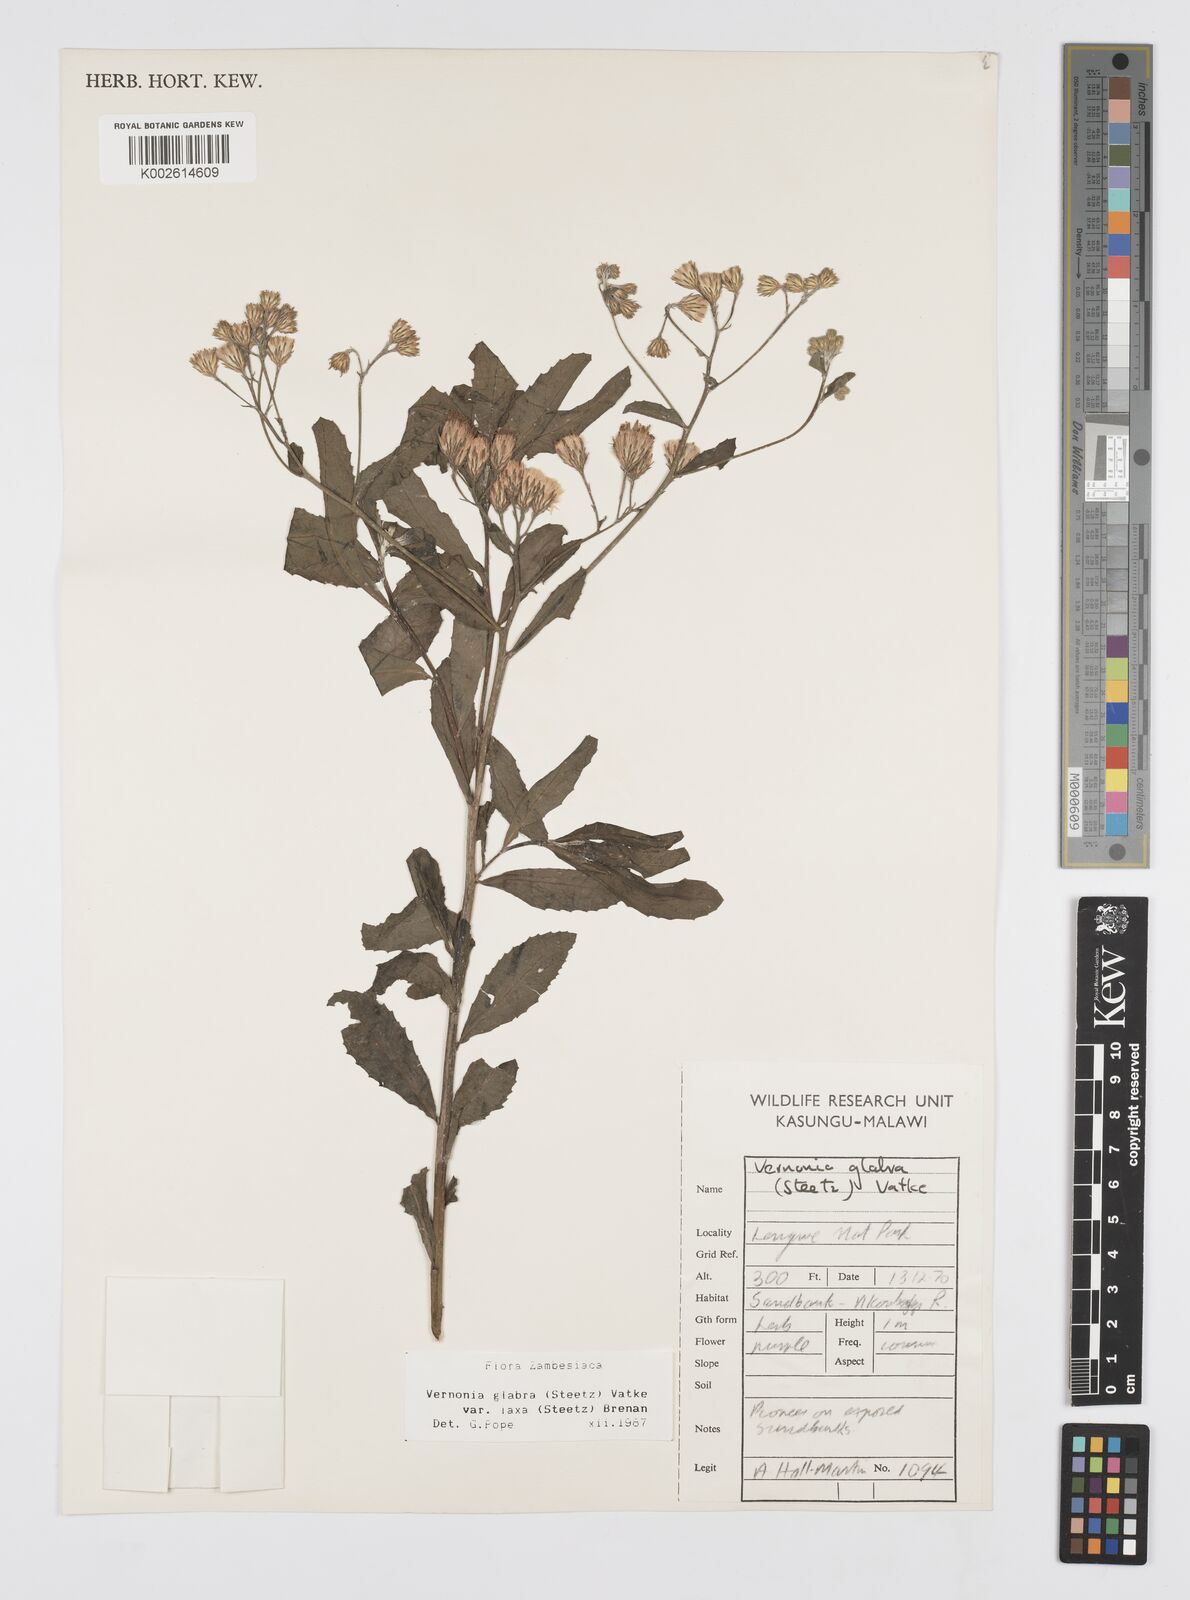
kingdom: Plantae
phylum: Tracheophyta
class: Magnoliopsida
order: Asterales
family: Asteraceae
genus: Linzia
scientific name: Linzia glabra
